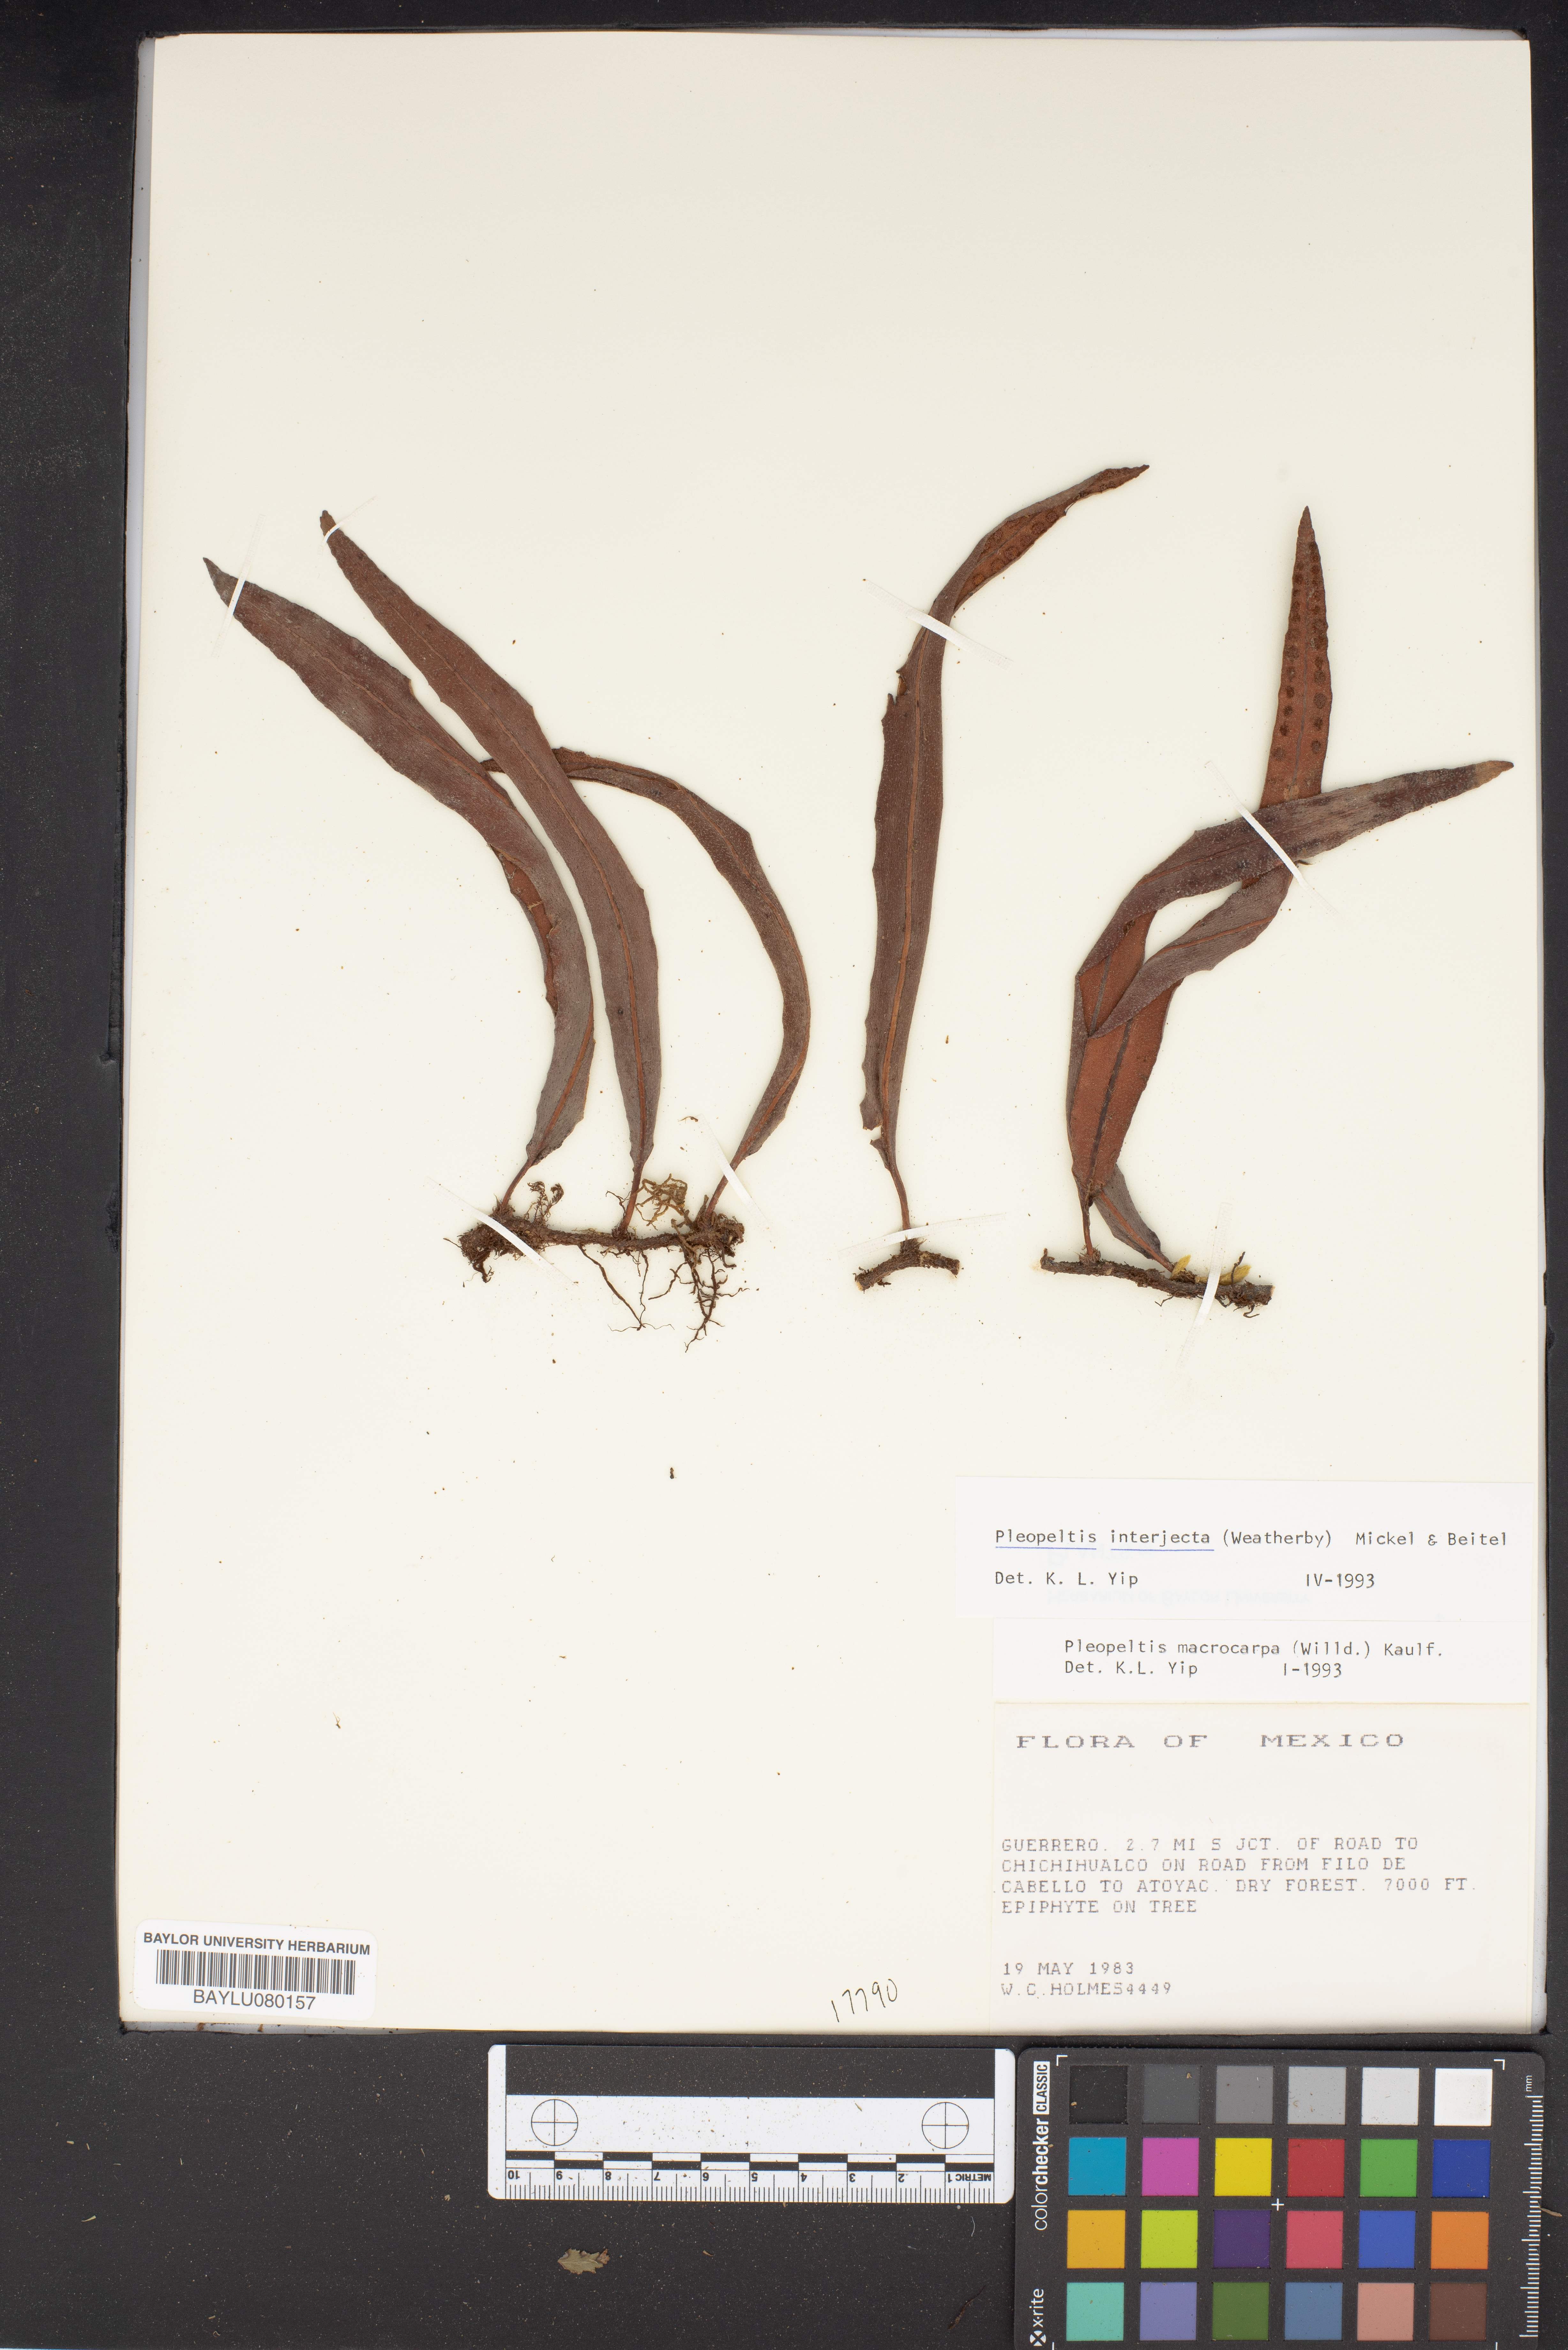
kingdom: Plantae
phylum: Tracheophyta
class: Polypodiopsida
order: Polypodiales
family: Polypodiaceae
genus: Pleopeltis
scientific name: Pleopeltis polylepis
